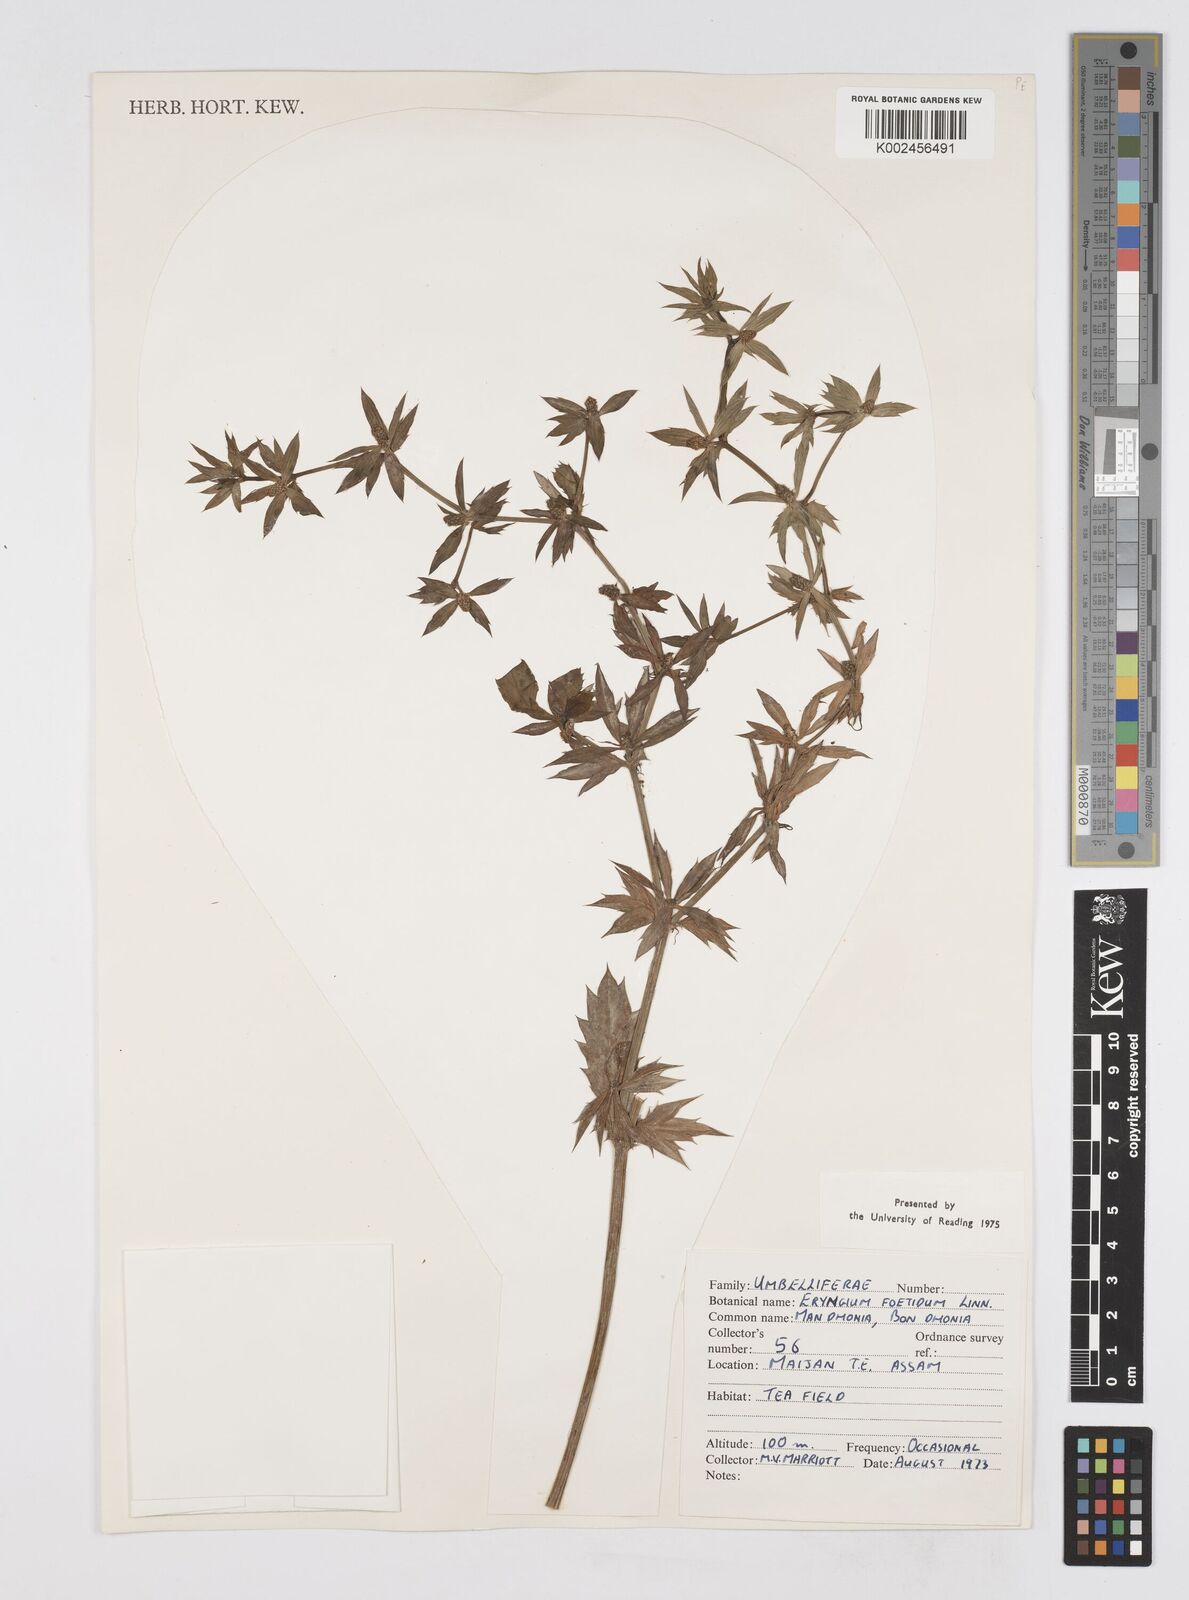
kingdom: Plantae
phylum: Tracheophyta
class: Magnoliopsida
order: Apiales
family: Apiaceae
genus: Eryngium
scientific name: Eryngium foetidum
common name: Fitweed
